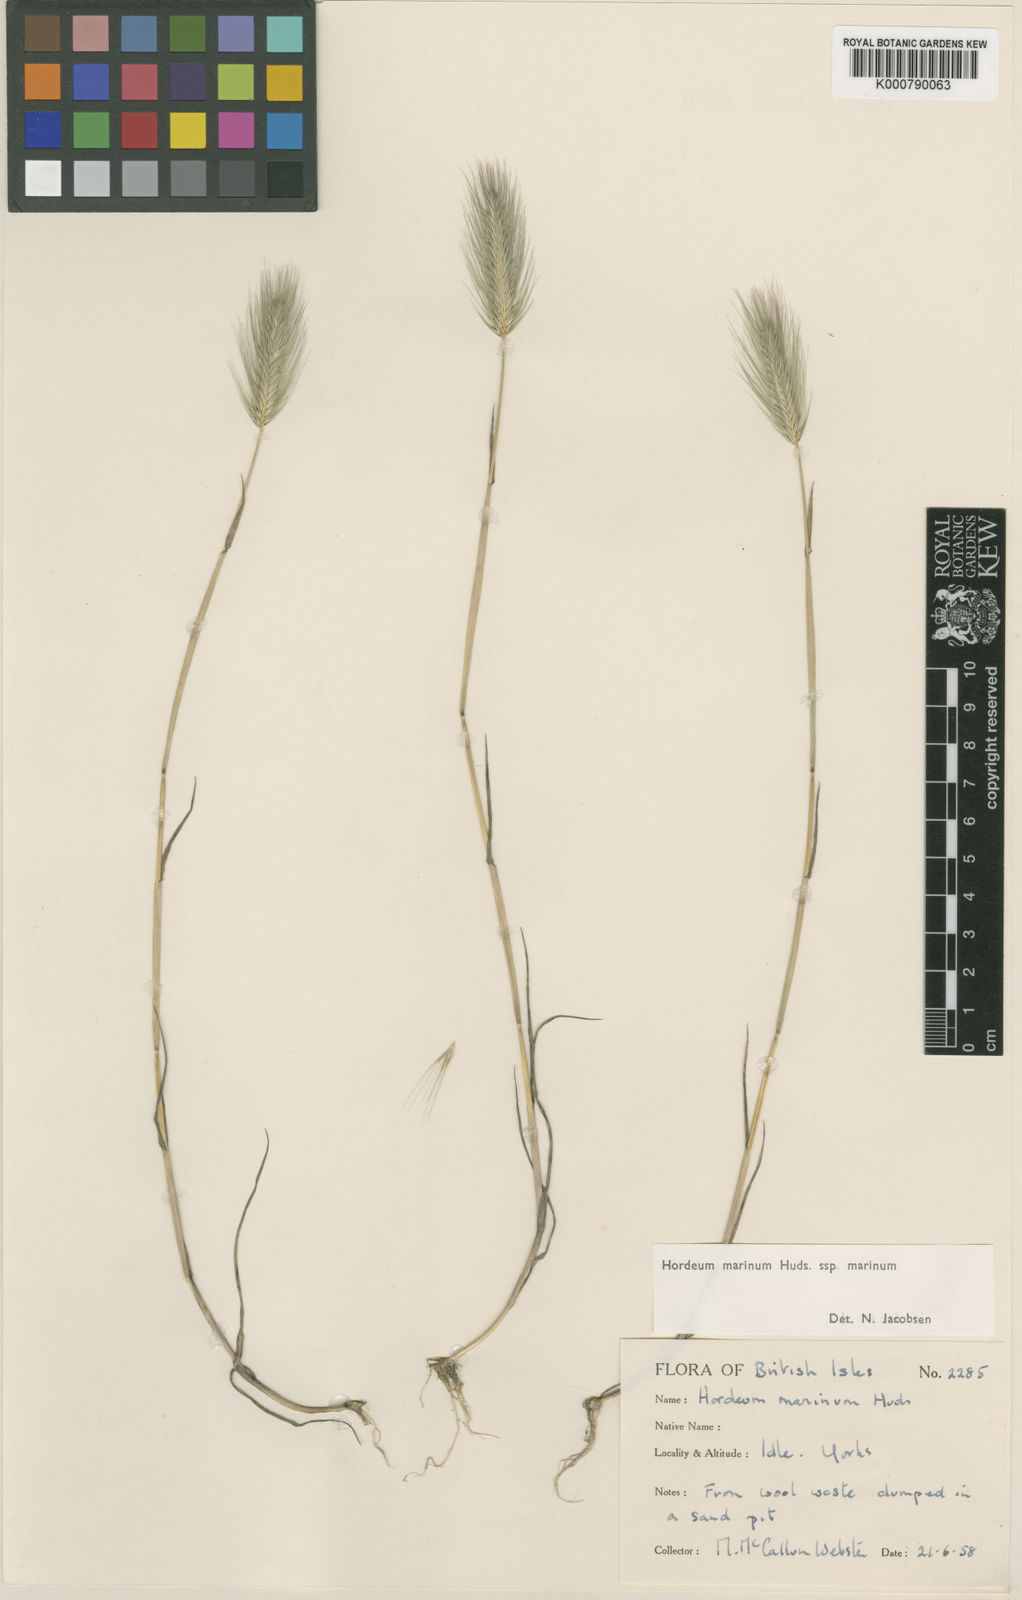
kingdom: Plantae
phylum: Tracheophyta
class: Liliopsida
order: Poales
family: Poaceae
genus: Hordeum
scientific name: Hordeum marinum
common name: Sea barley
